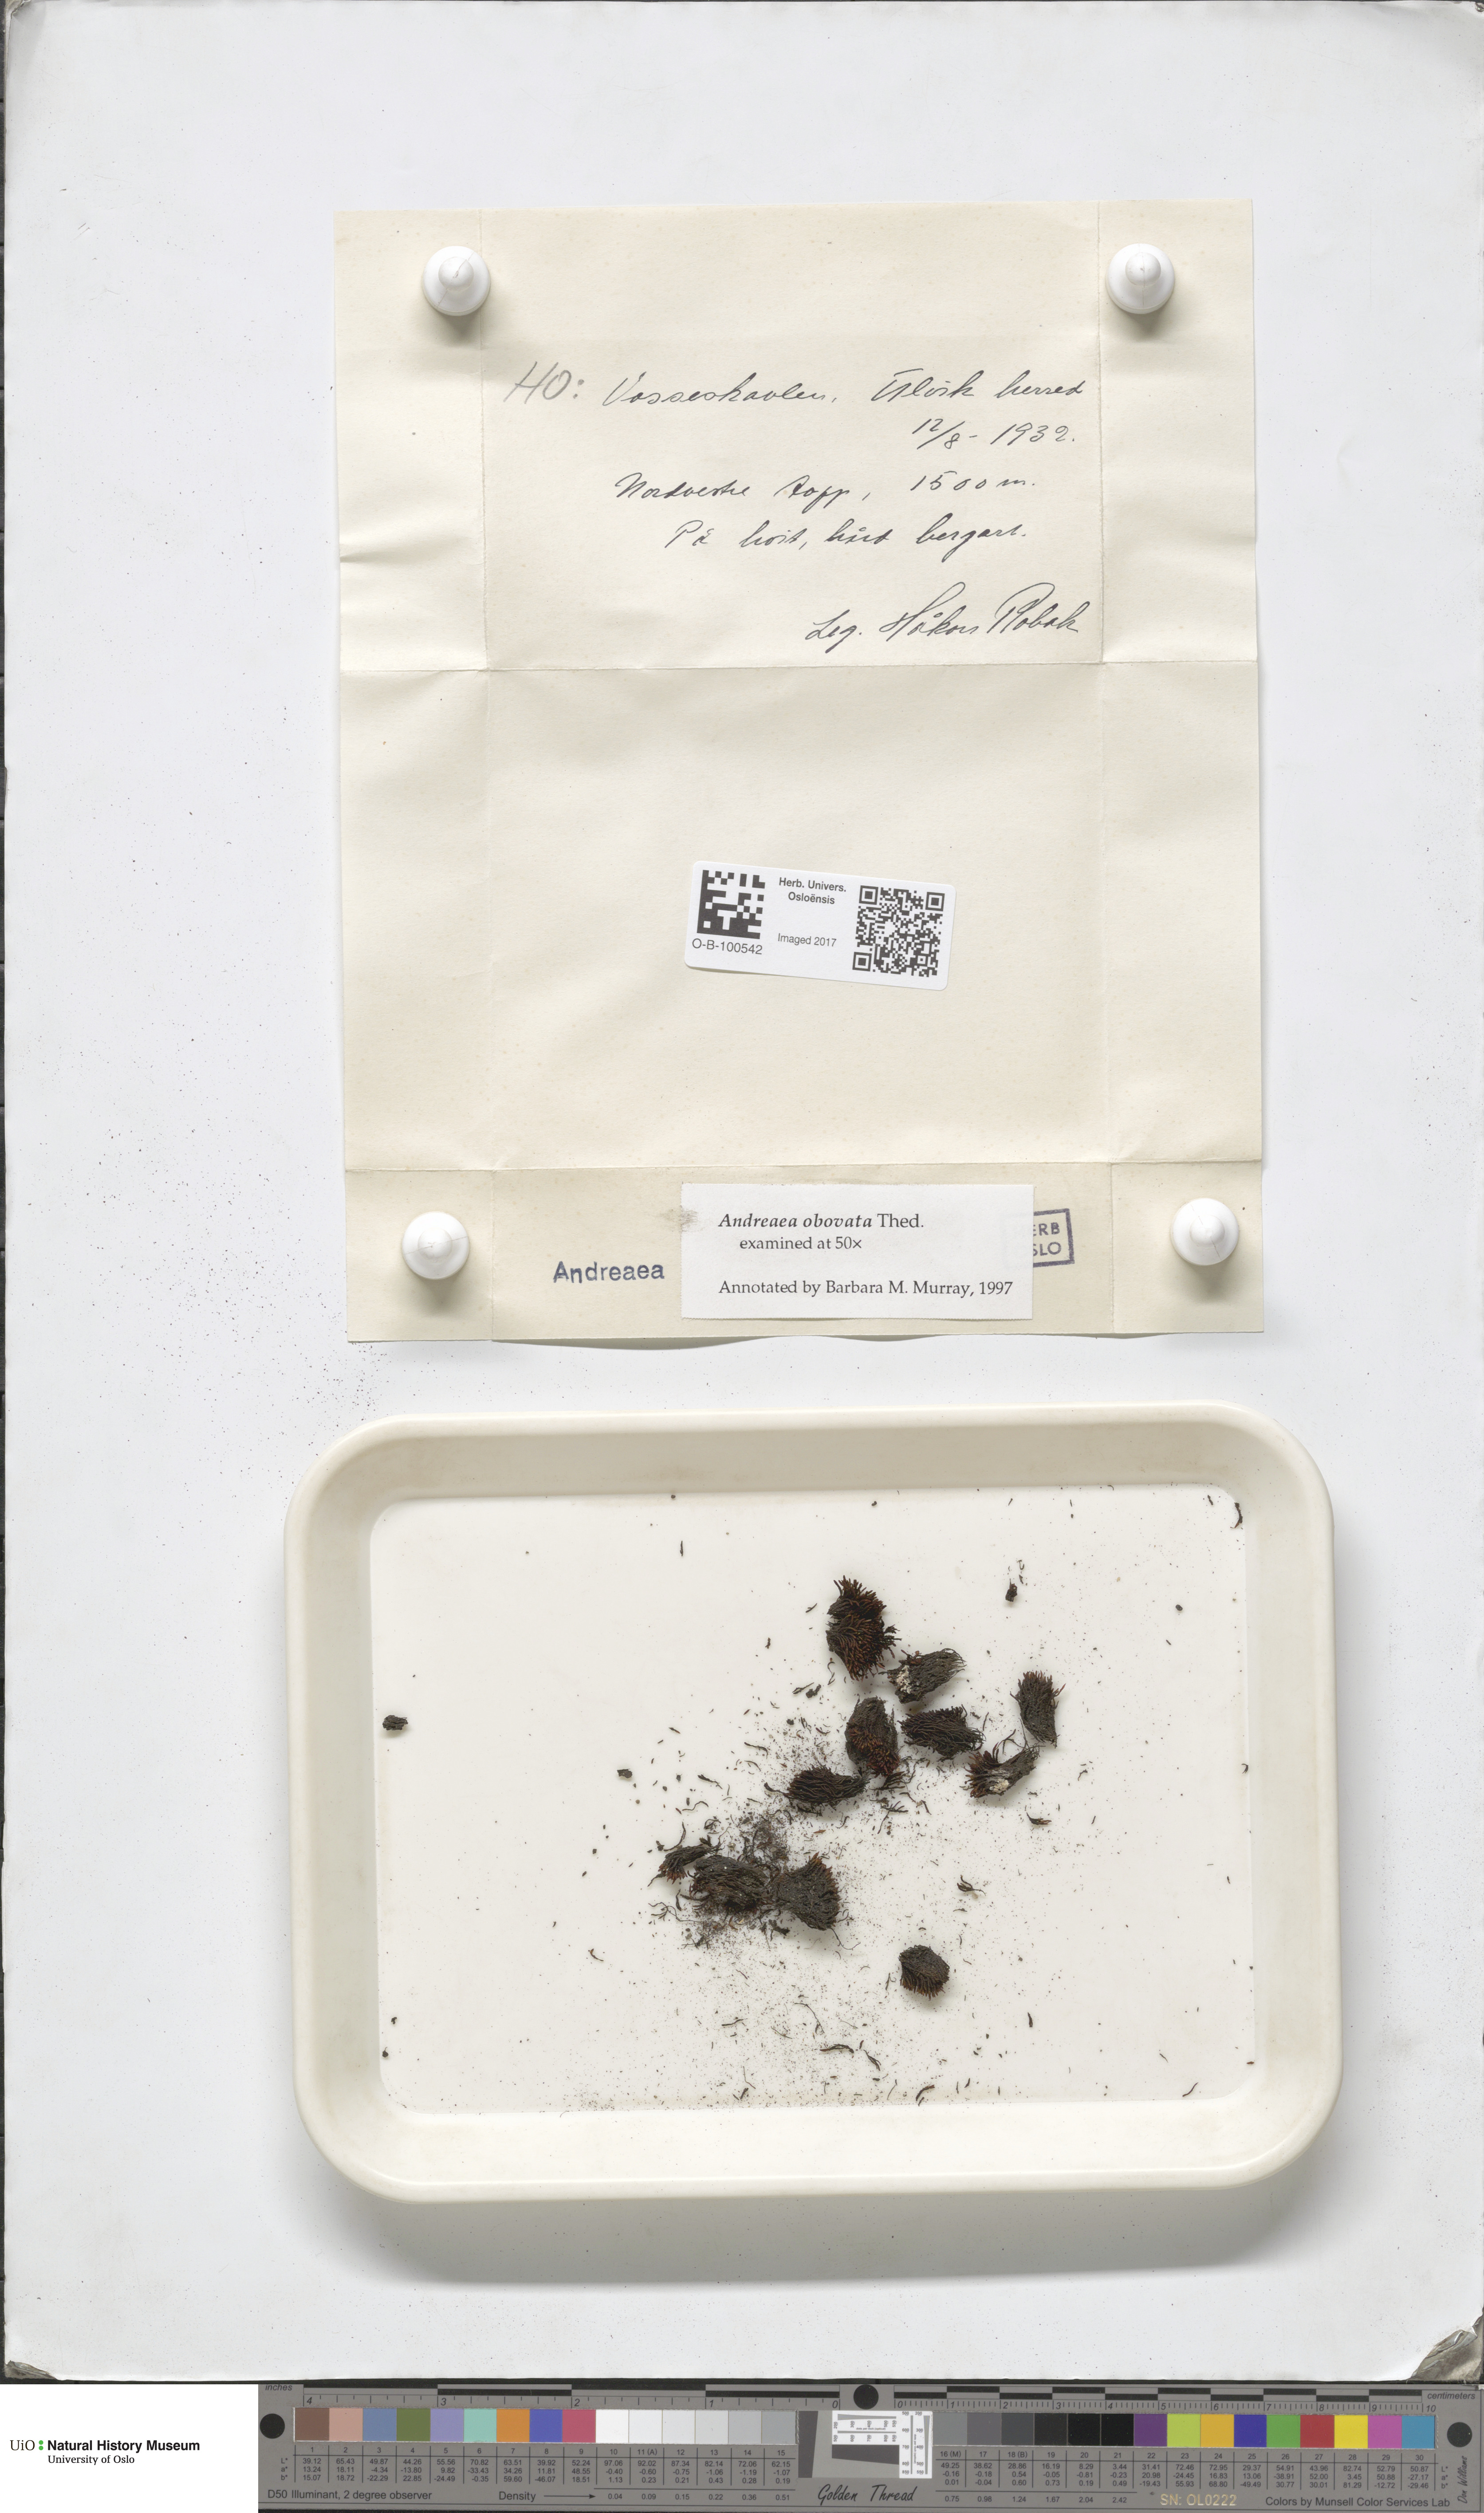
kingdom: Plantae
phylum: Bryophyta
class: Andreaeopsida
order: Andreaeales
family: Andreaeaceae
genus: Andreaea
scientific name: Andreaea alpina
